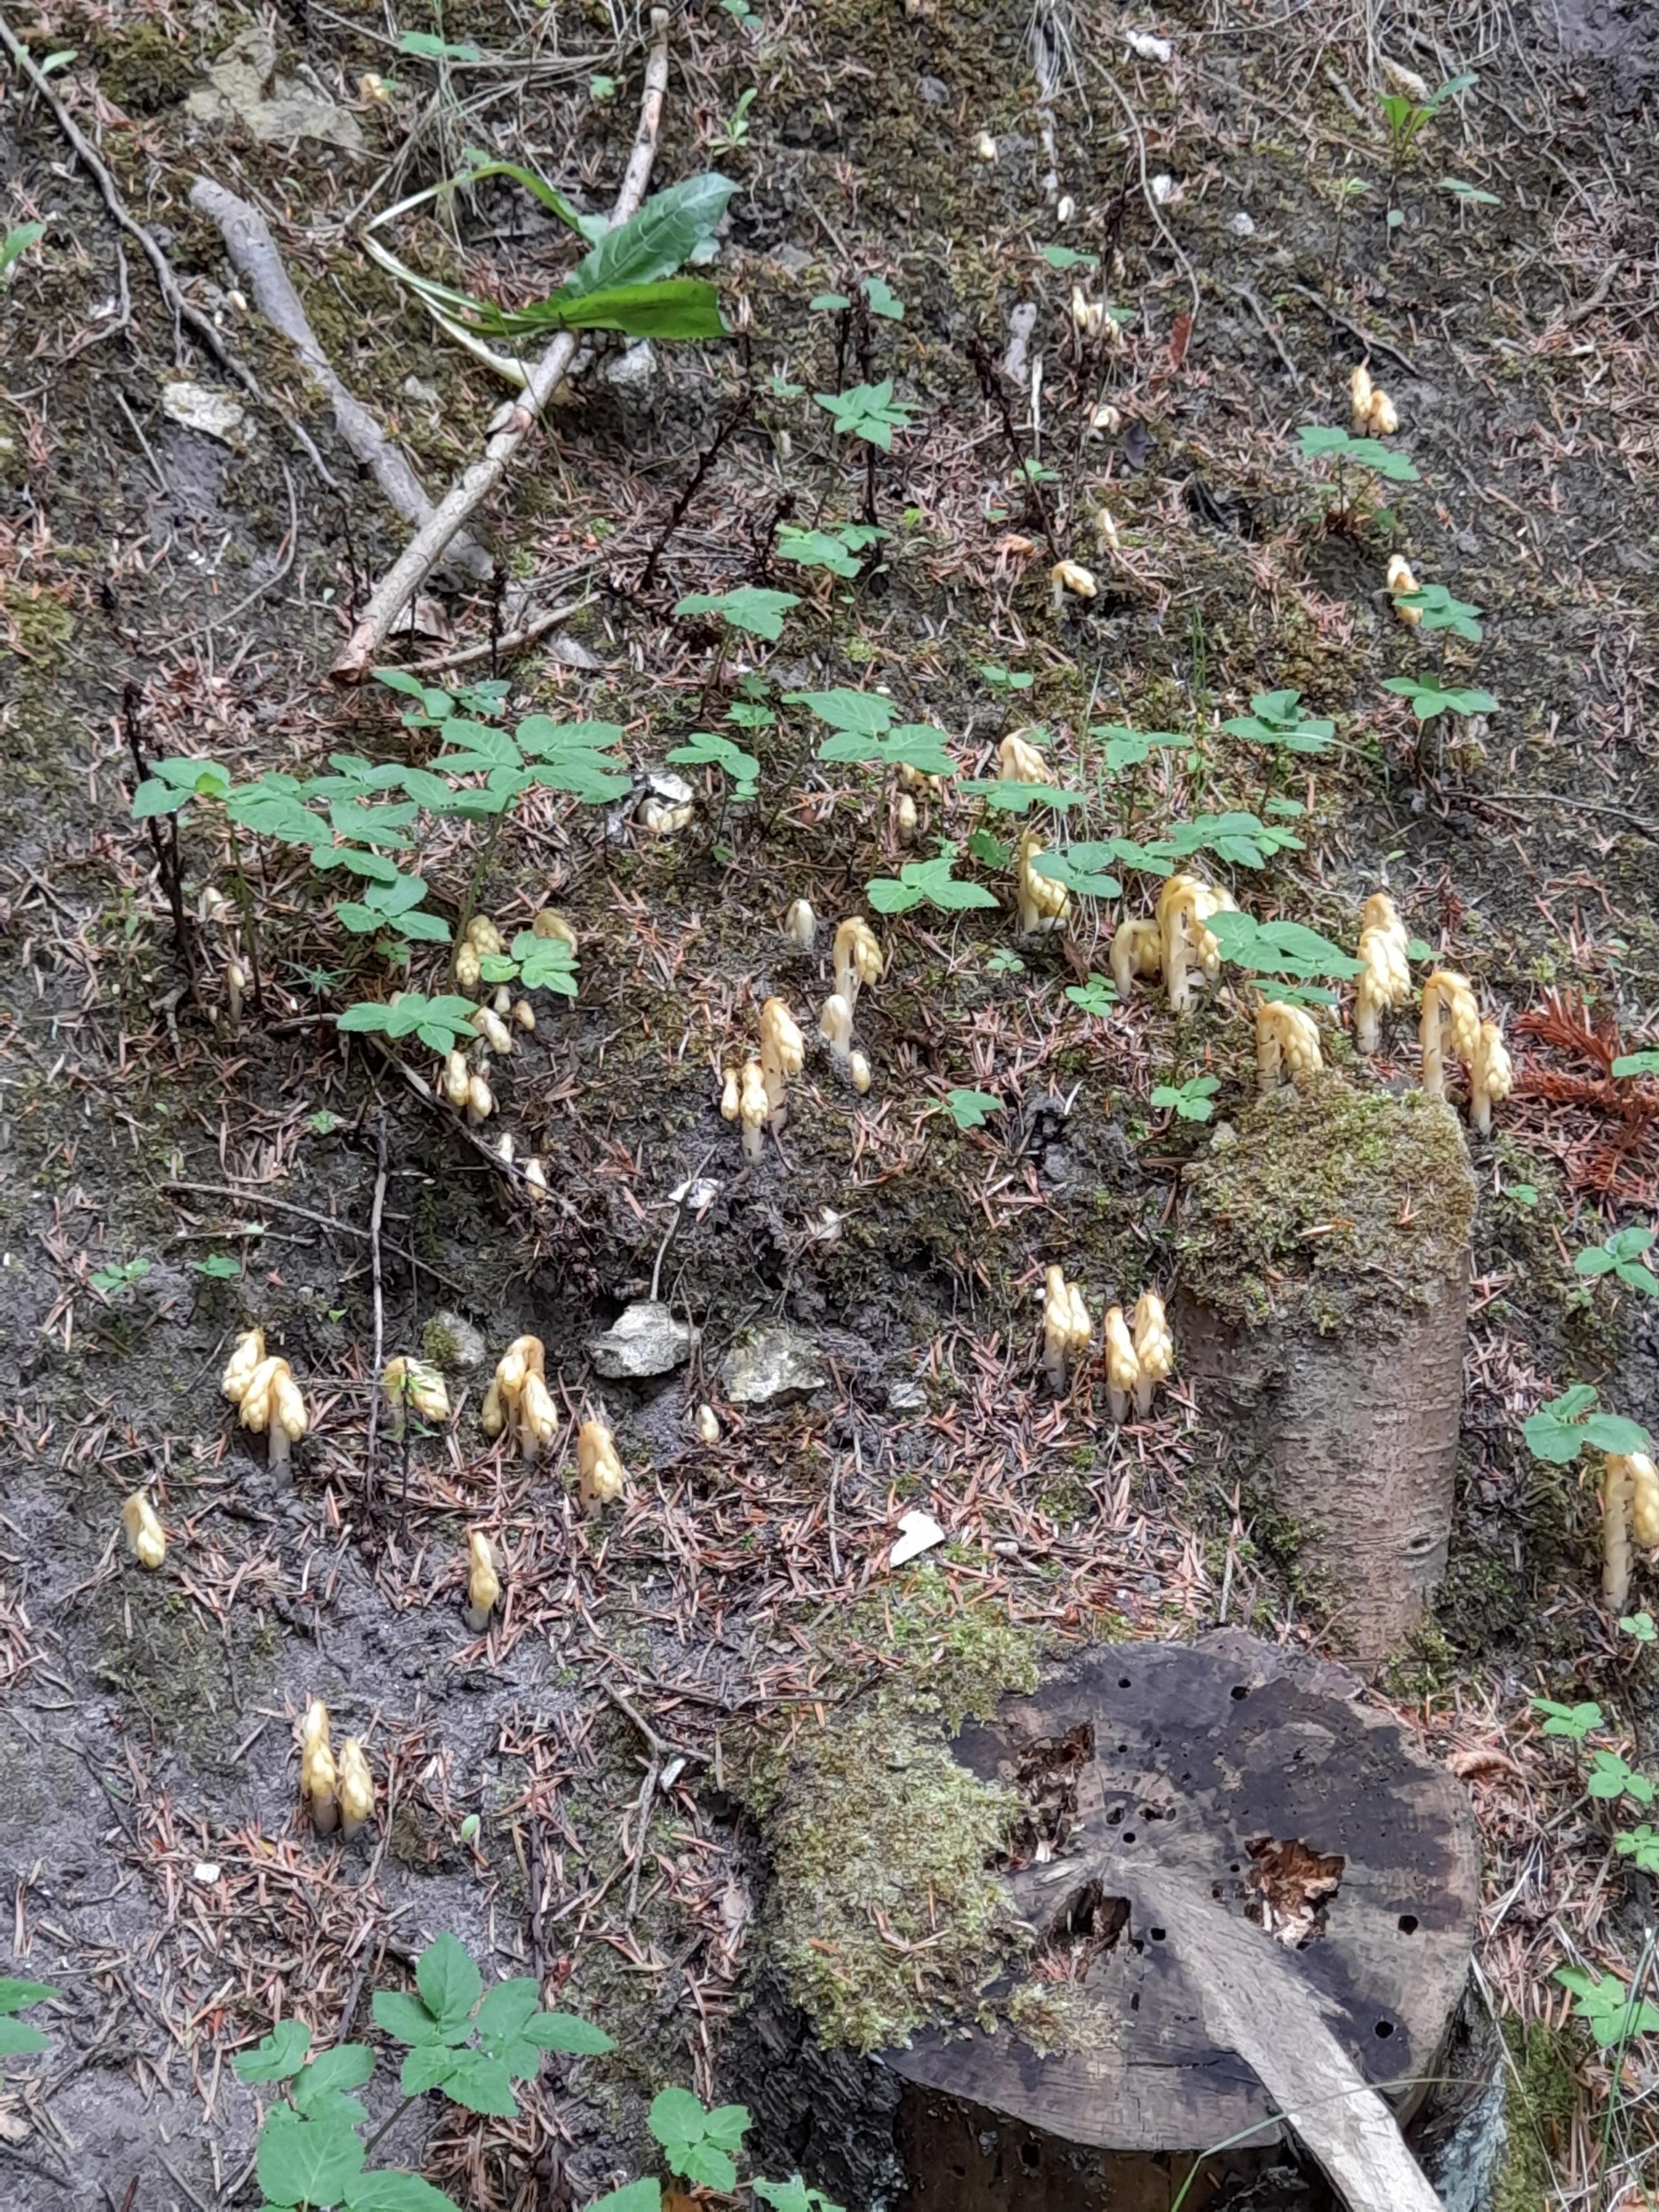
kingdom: Plantae
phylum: Tracheophyta
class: Magnoliopsida
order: Ericales
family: Ericaceae
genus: Hypopitys
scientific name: Hypopitys monotropa
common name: Snylterod
